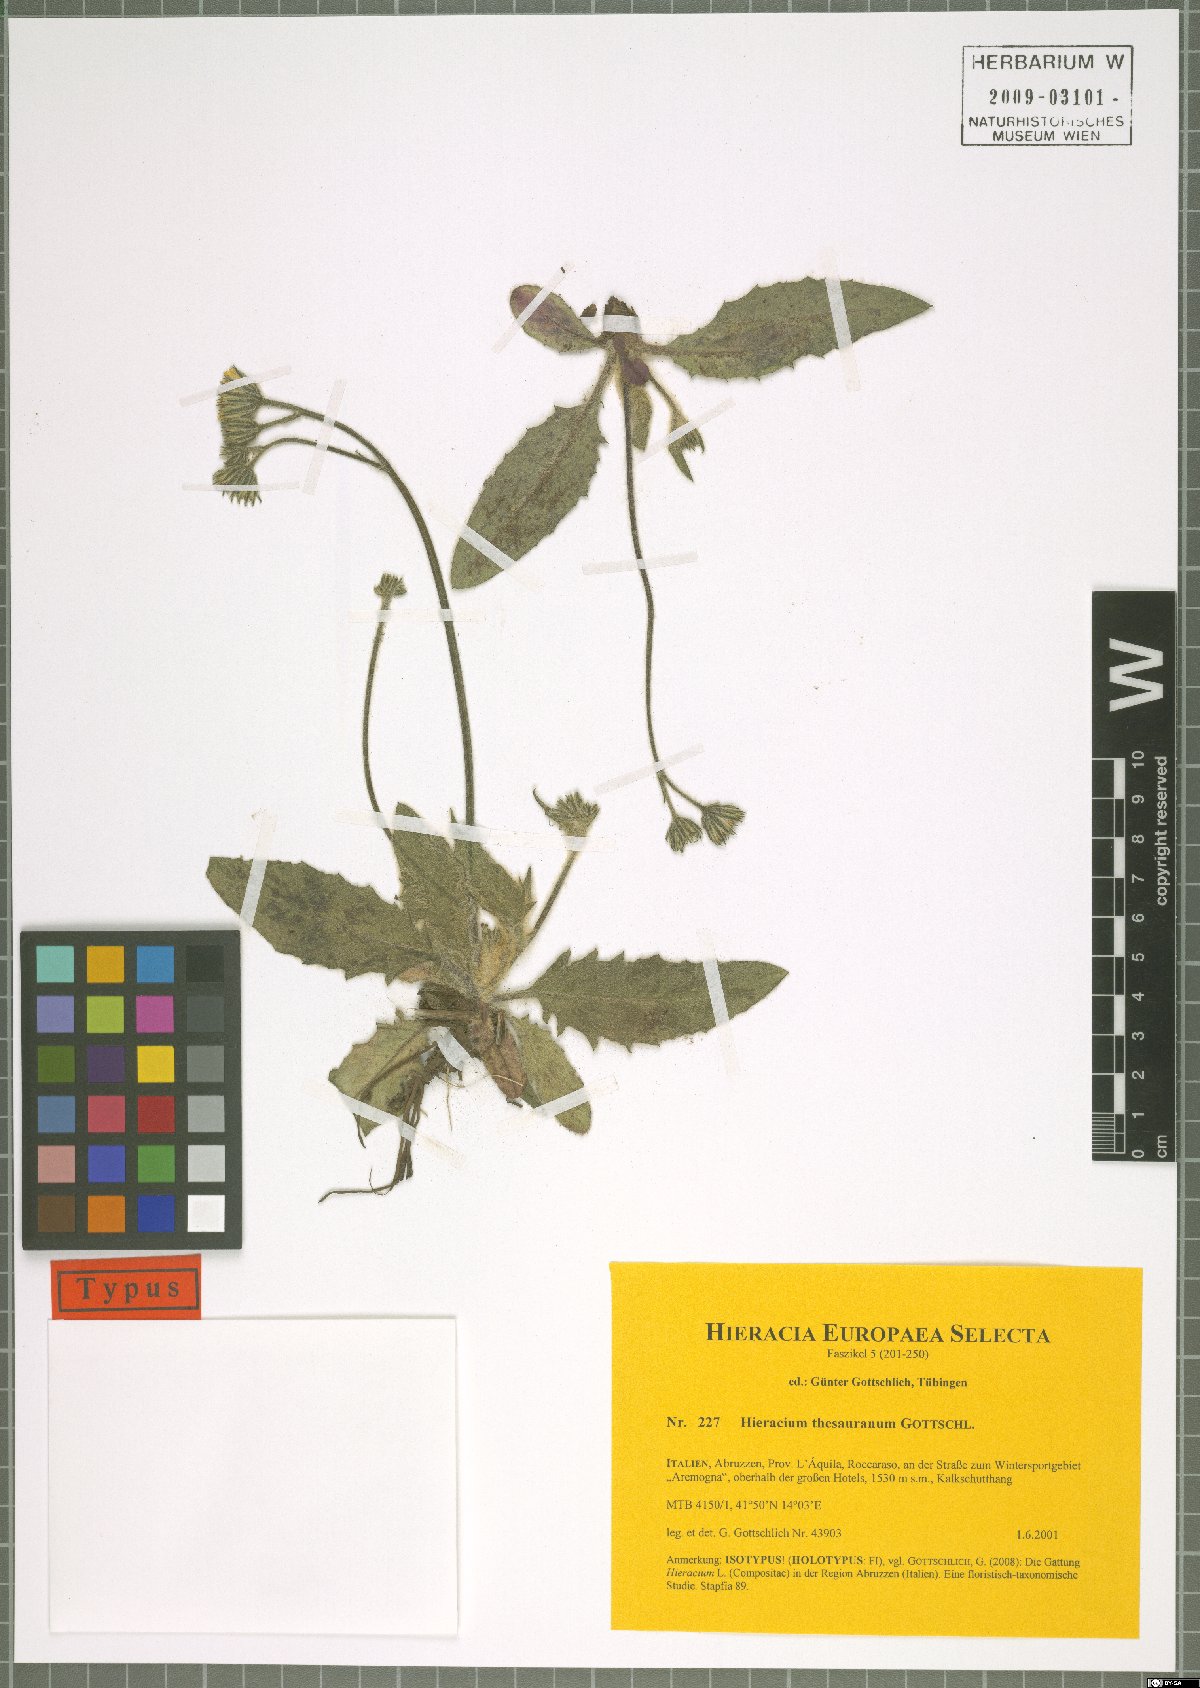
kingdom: Plantae
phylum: Tracheophyta
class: Magnoliopsida
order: Asterales
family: Asteraceae
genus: Hieracium
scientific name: Hieracium thesauranum
